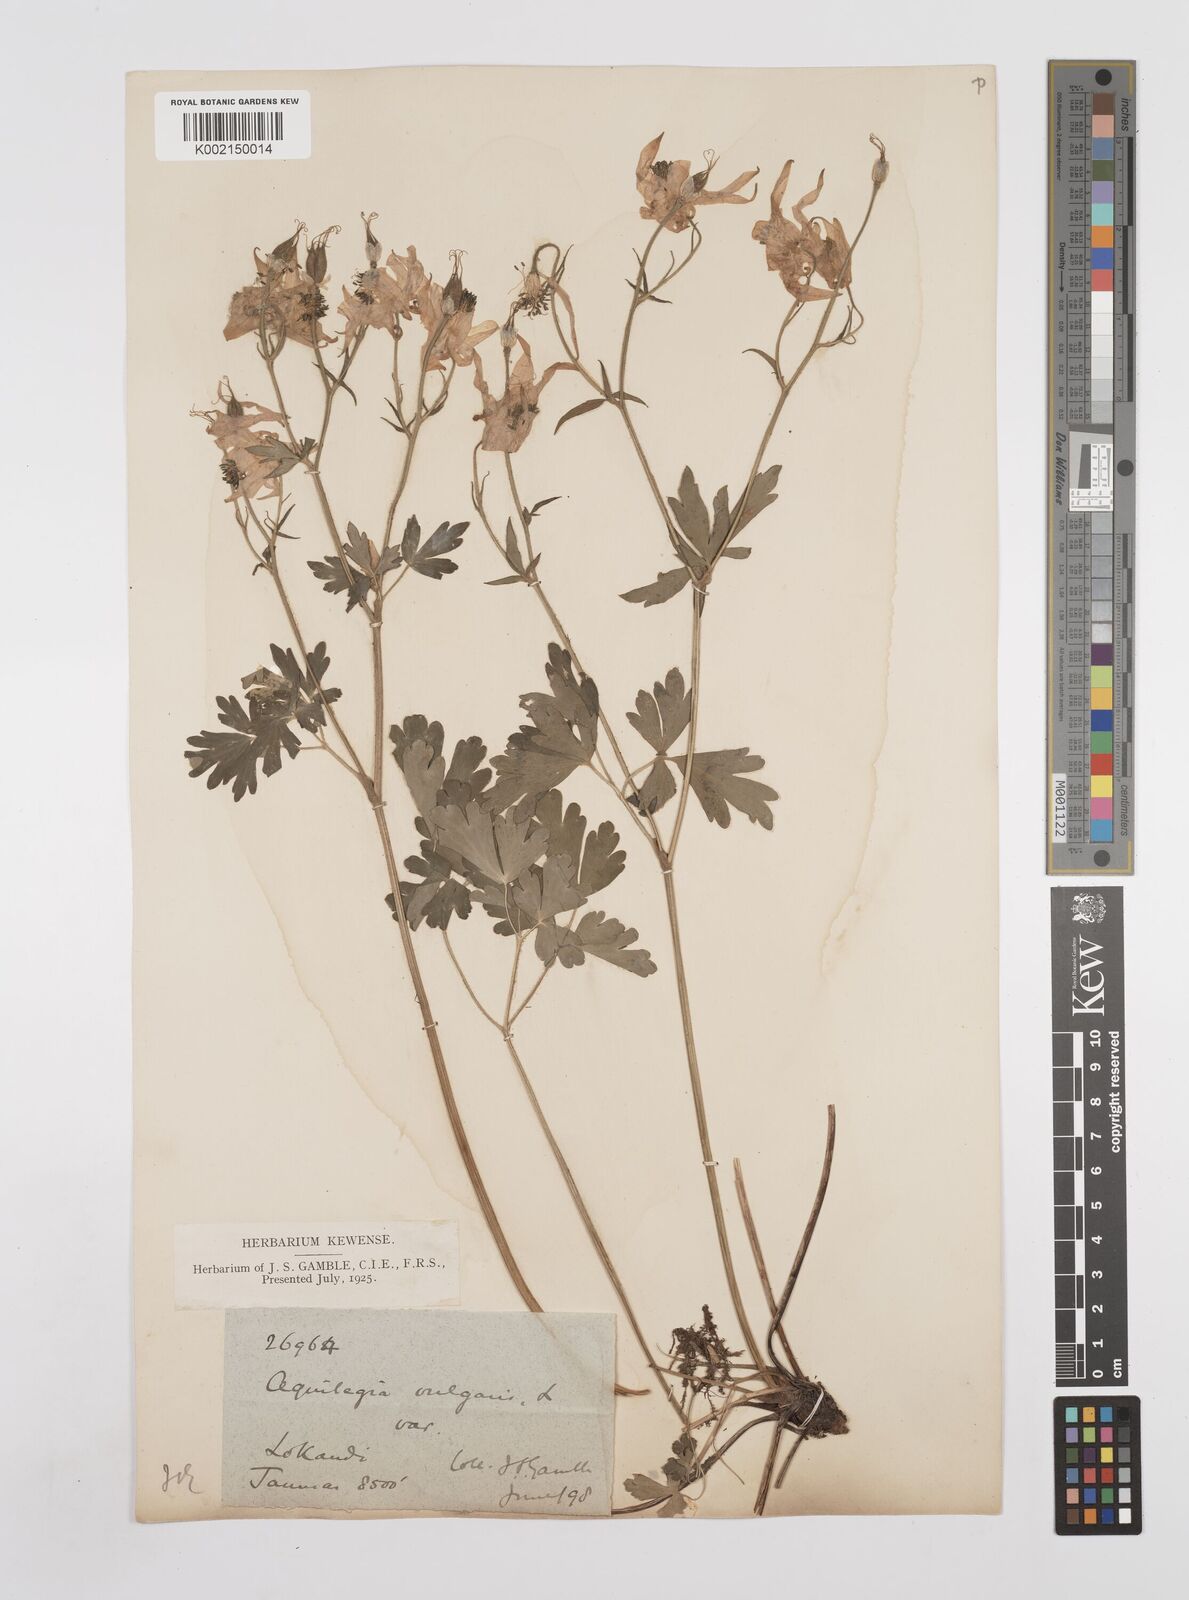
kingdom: Plantae
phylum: Tracheophyta
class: Magnoliopsida
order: Ranunculales
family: Ranunculaceae
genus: Aquilegia
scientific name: Aquilegia pubiflora
